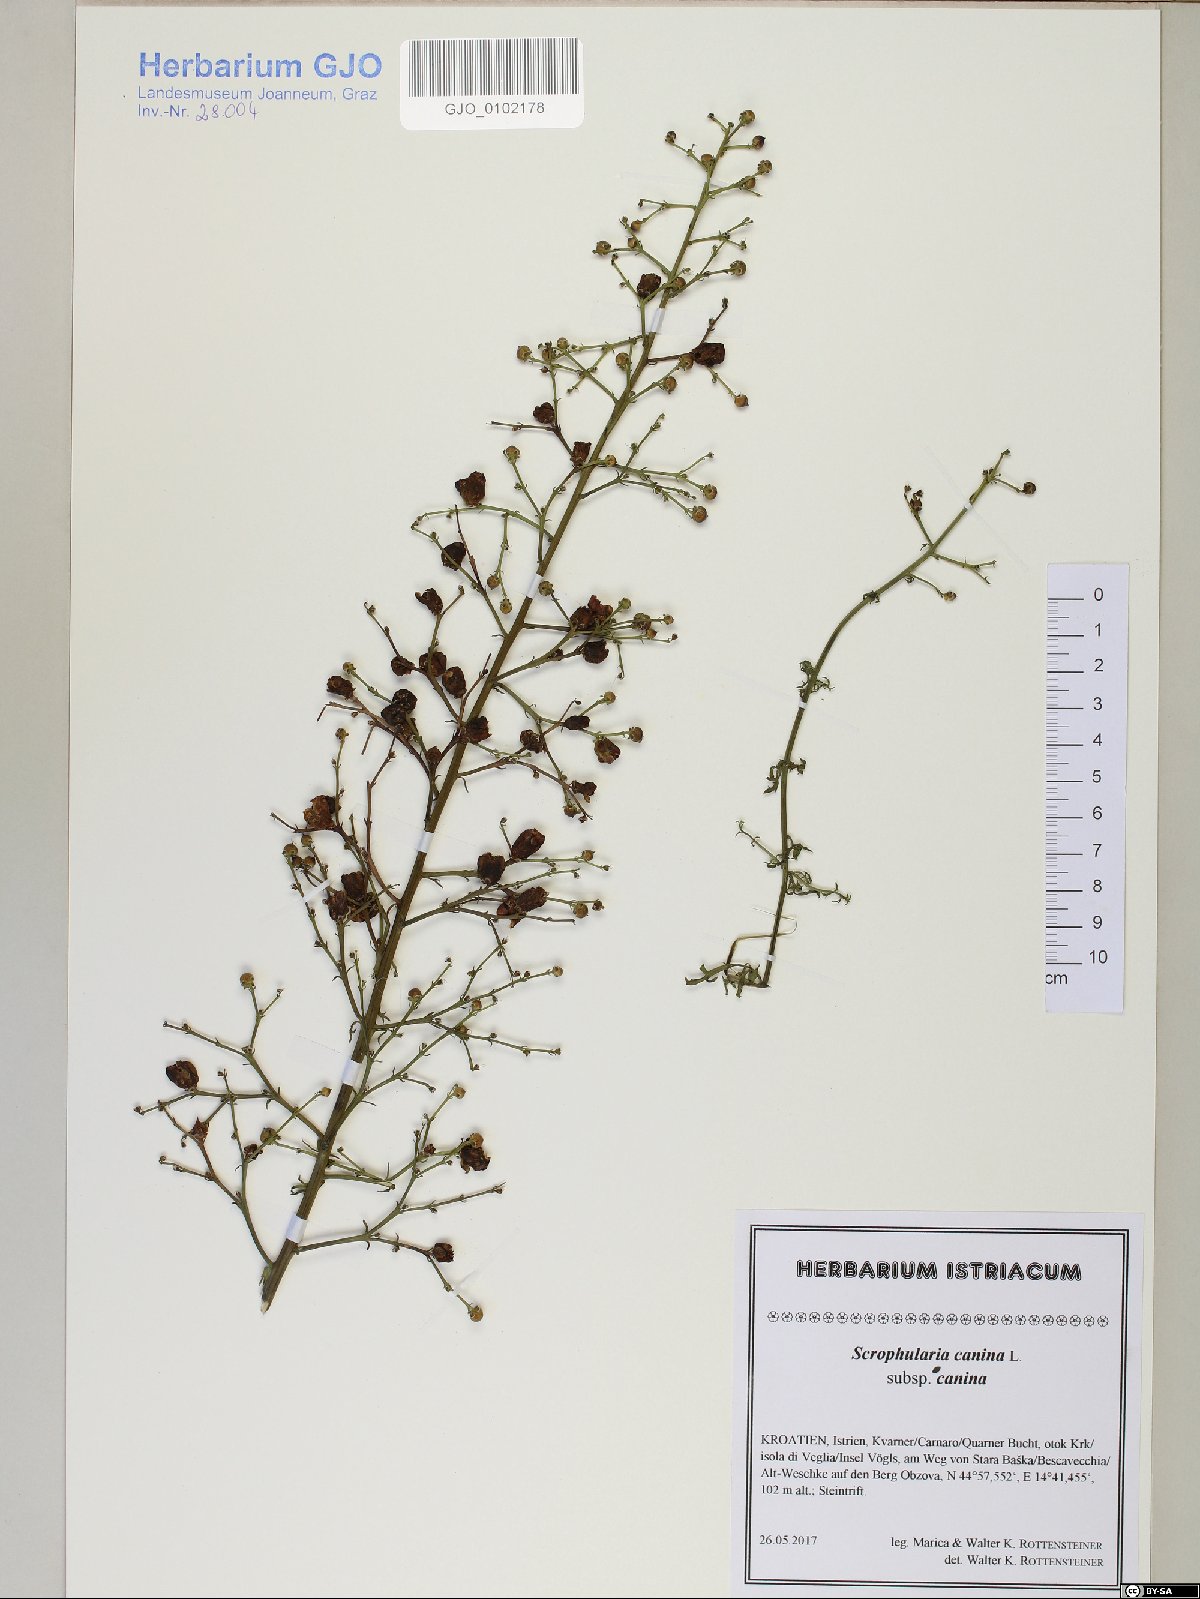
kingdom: Plantae
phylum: Tracheophyta
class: Magnoliopsida
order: Lamiales
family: Scrophulariaceae
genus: Scrophularia
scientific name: Scrophularia canina
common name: French figwort
